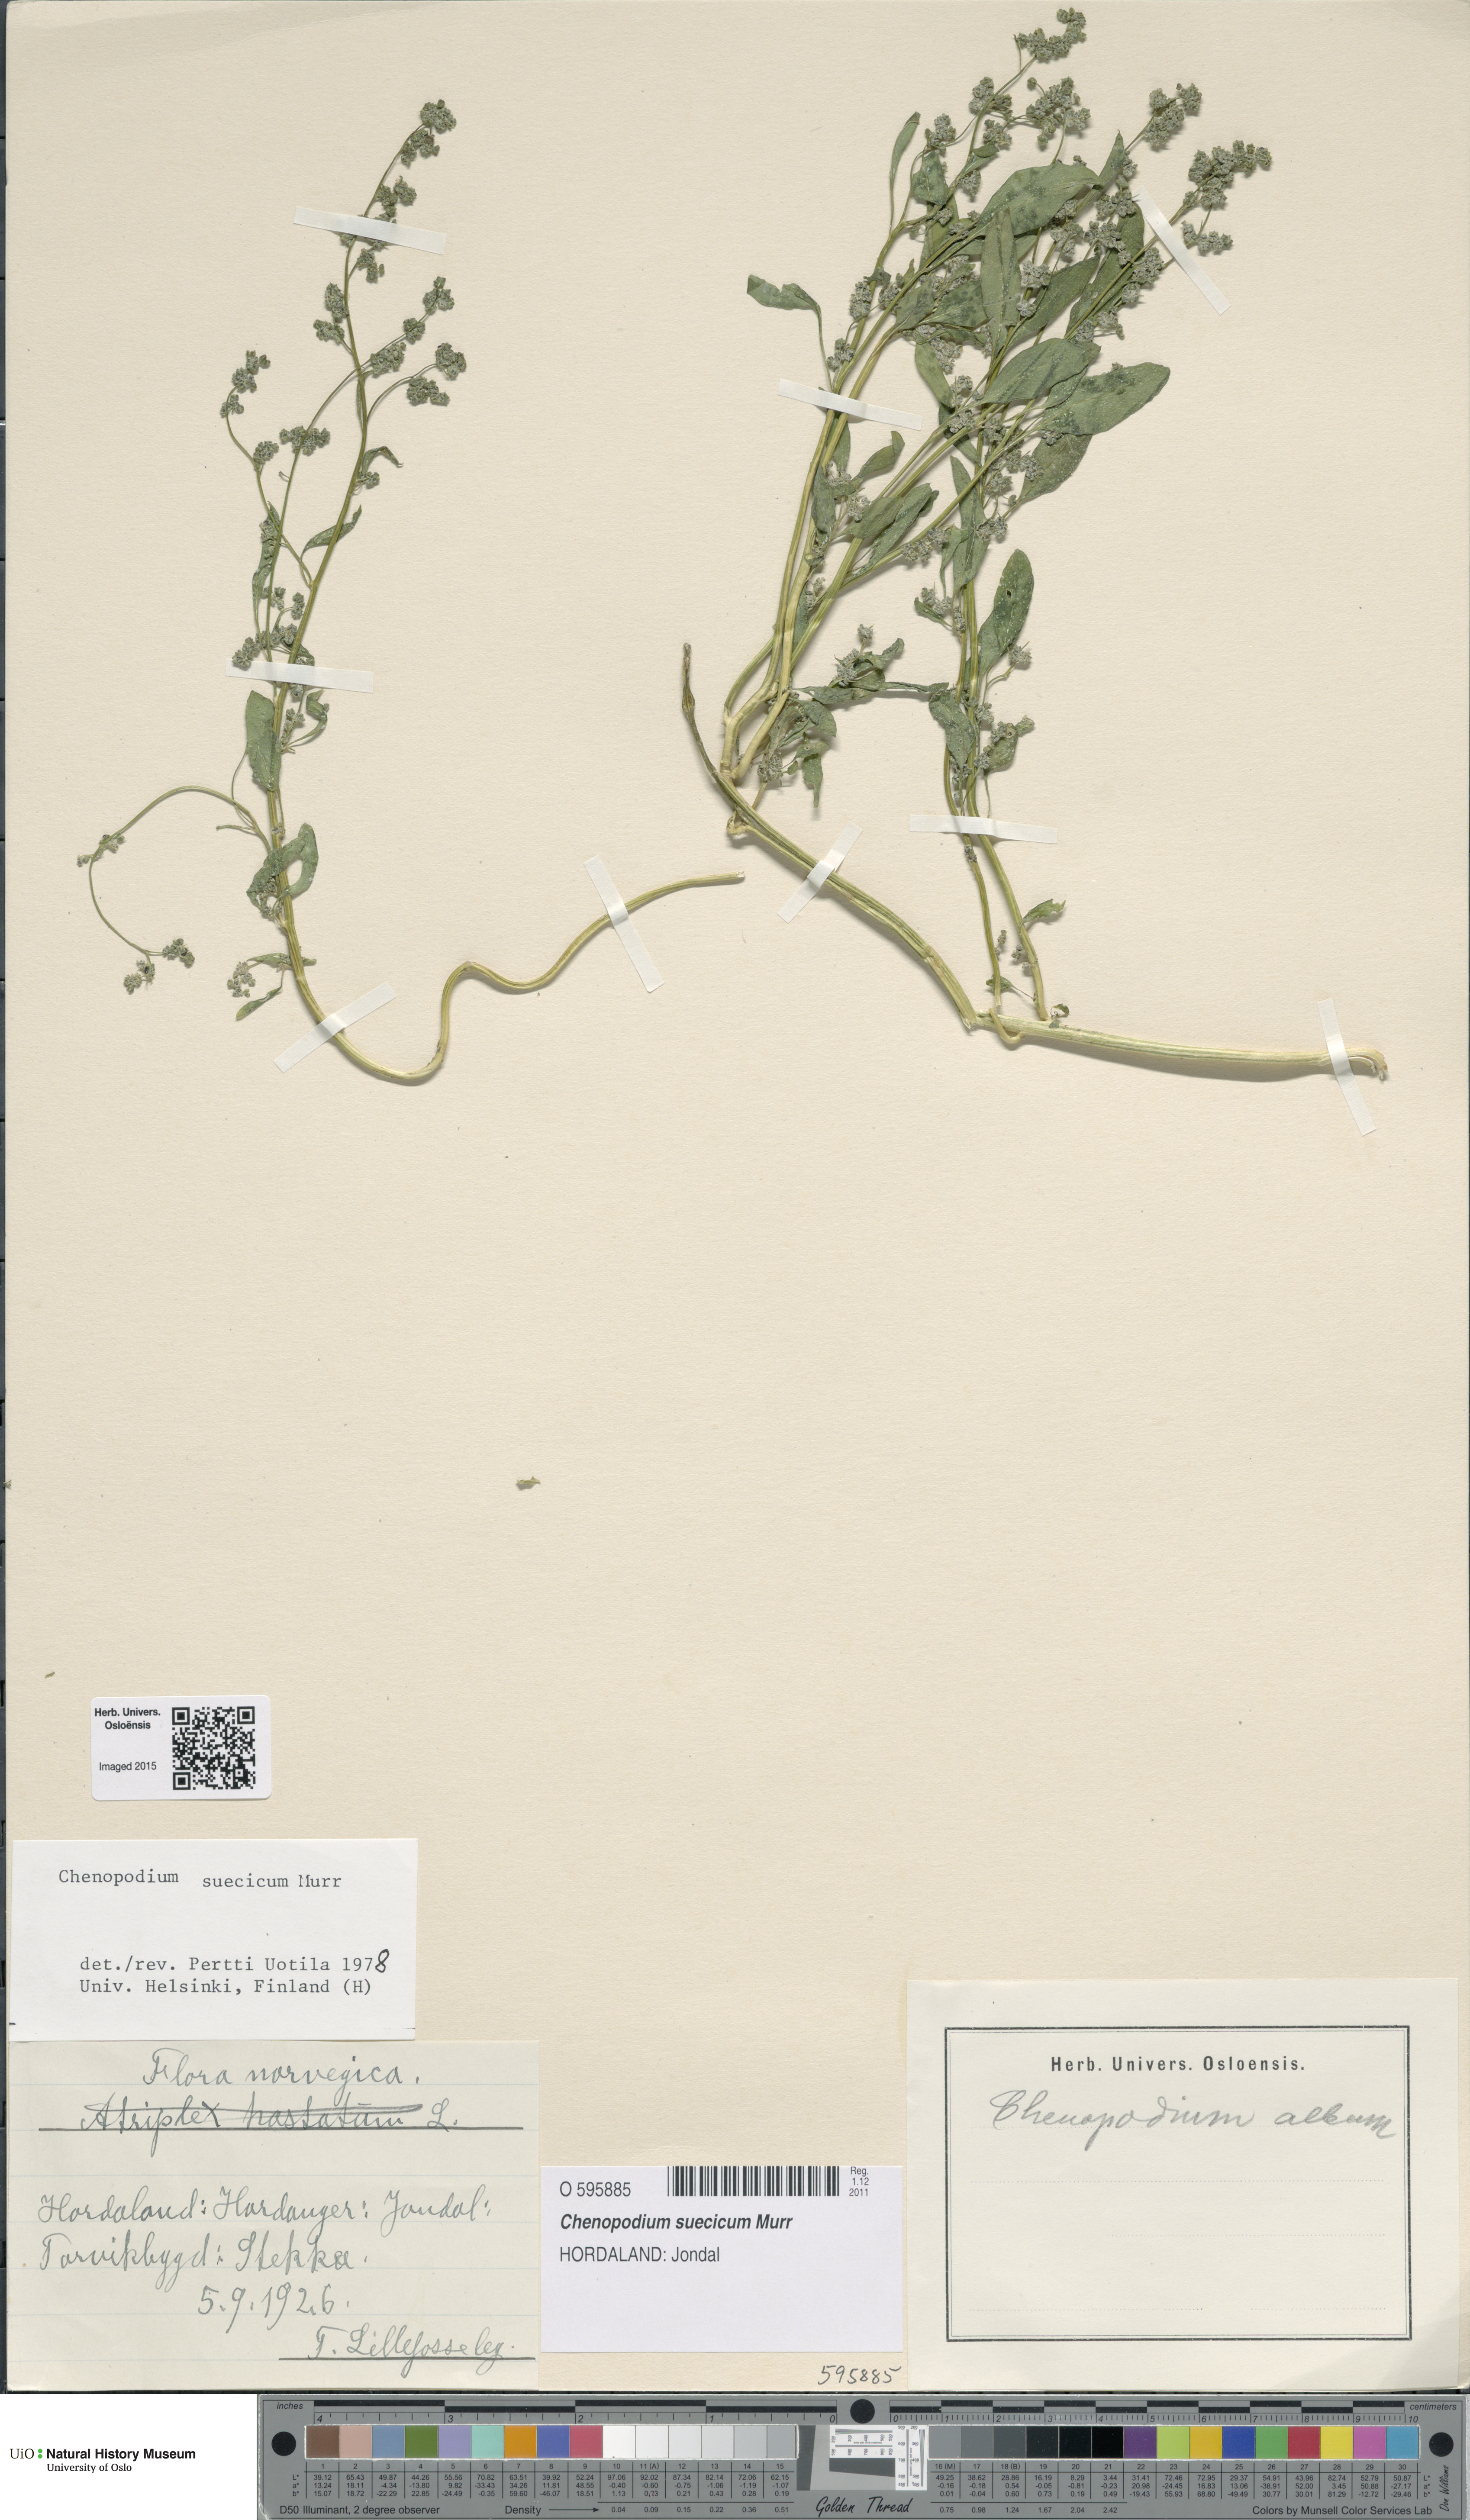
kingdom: Plantae
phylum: Tracheophyta
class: Magnoliopsida
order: Caryophyllales
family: Amaranthaceae
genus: Chenopodium
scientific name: Chenopodium suecicum
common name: Swedish goosefoot
